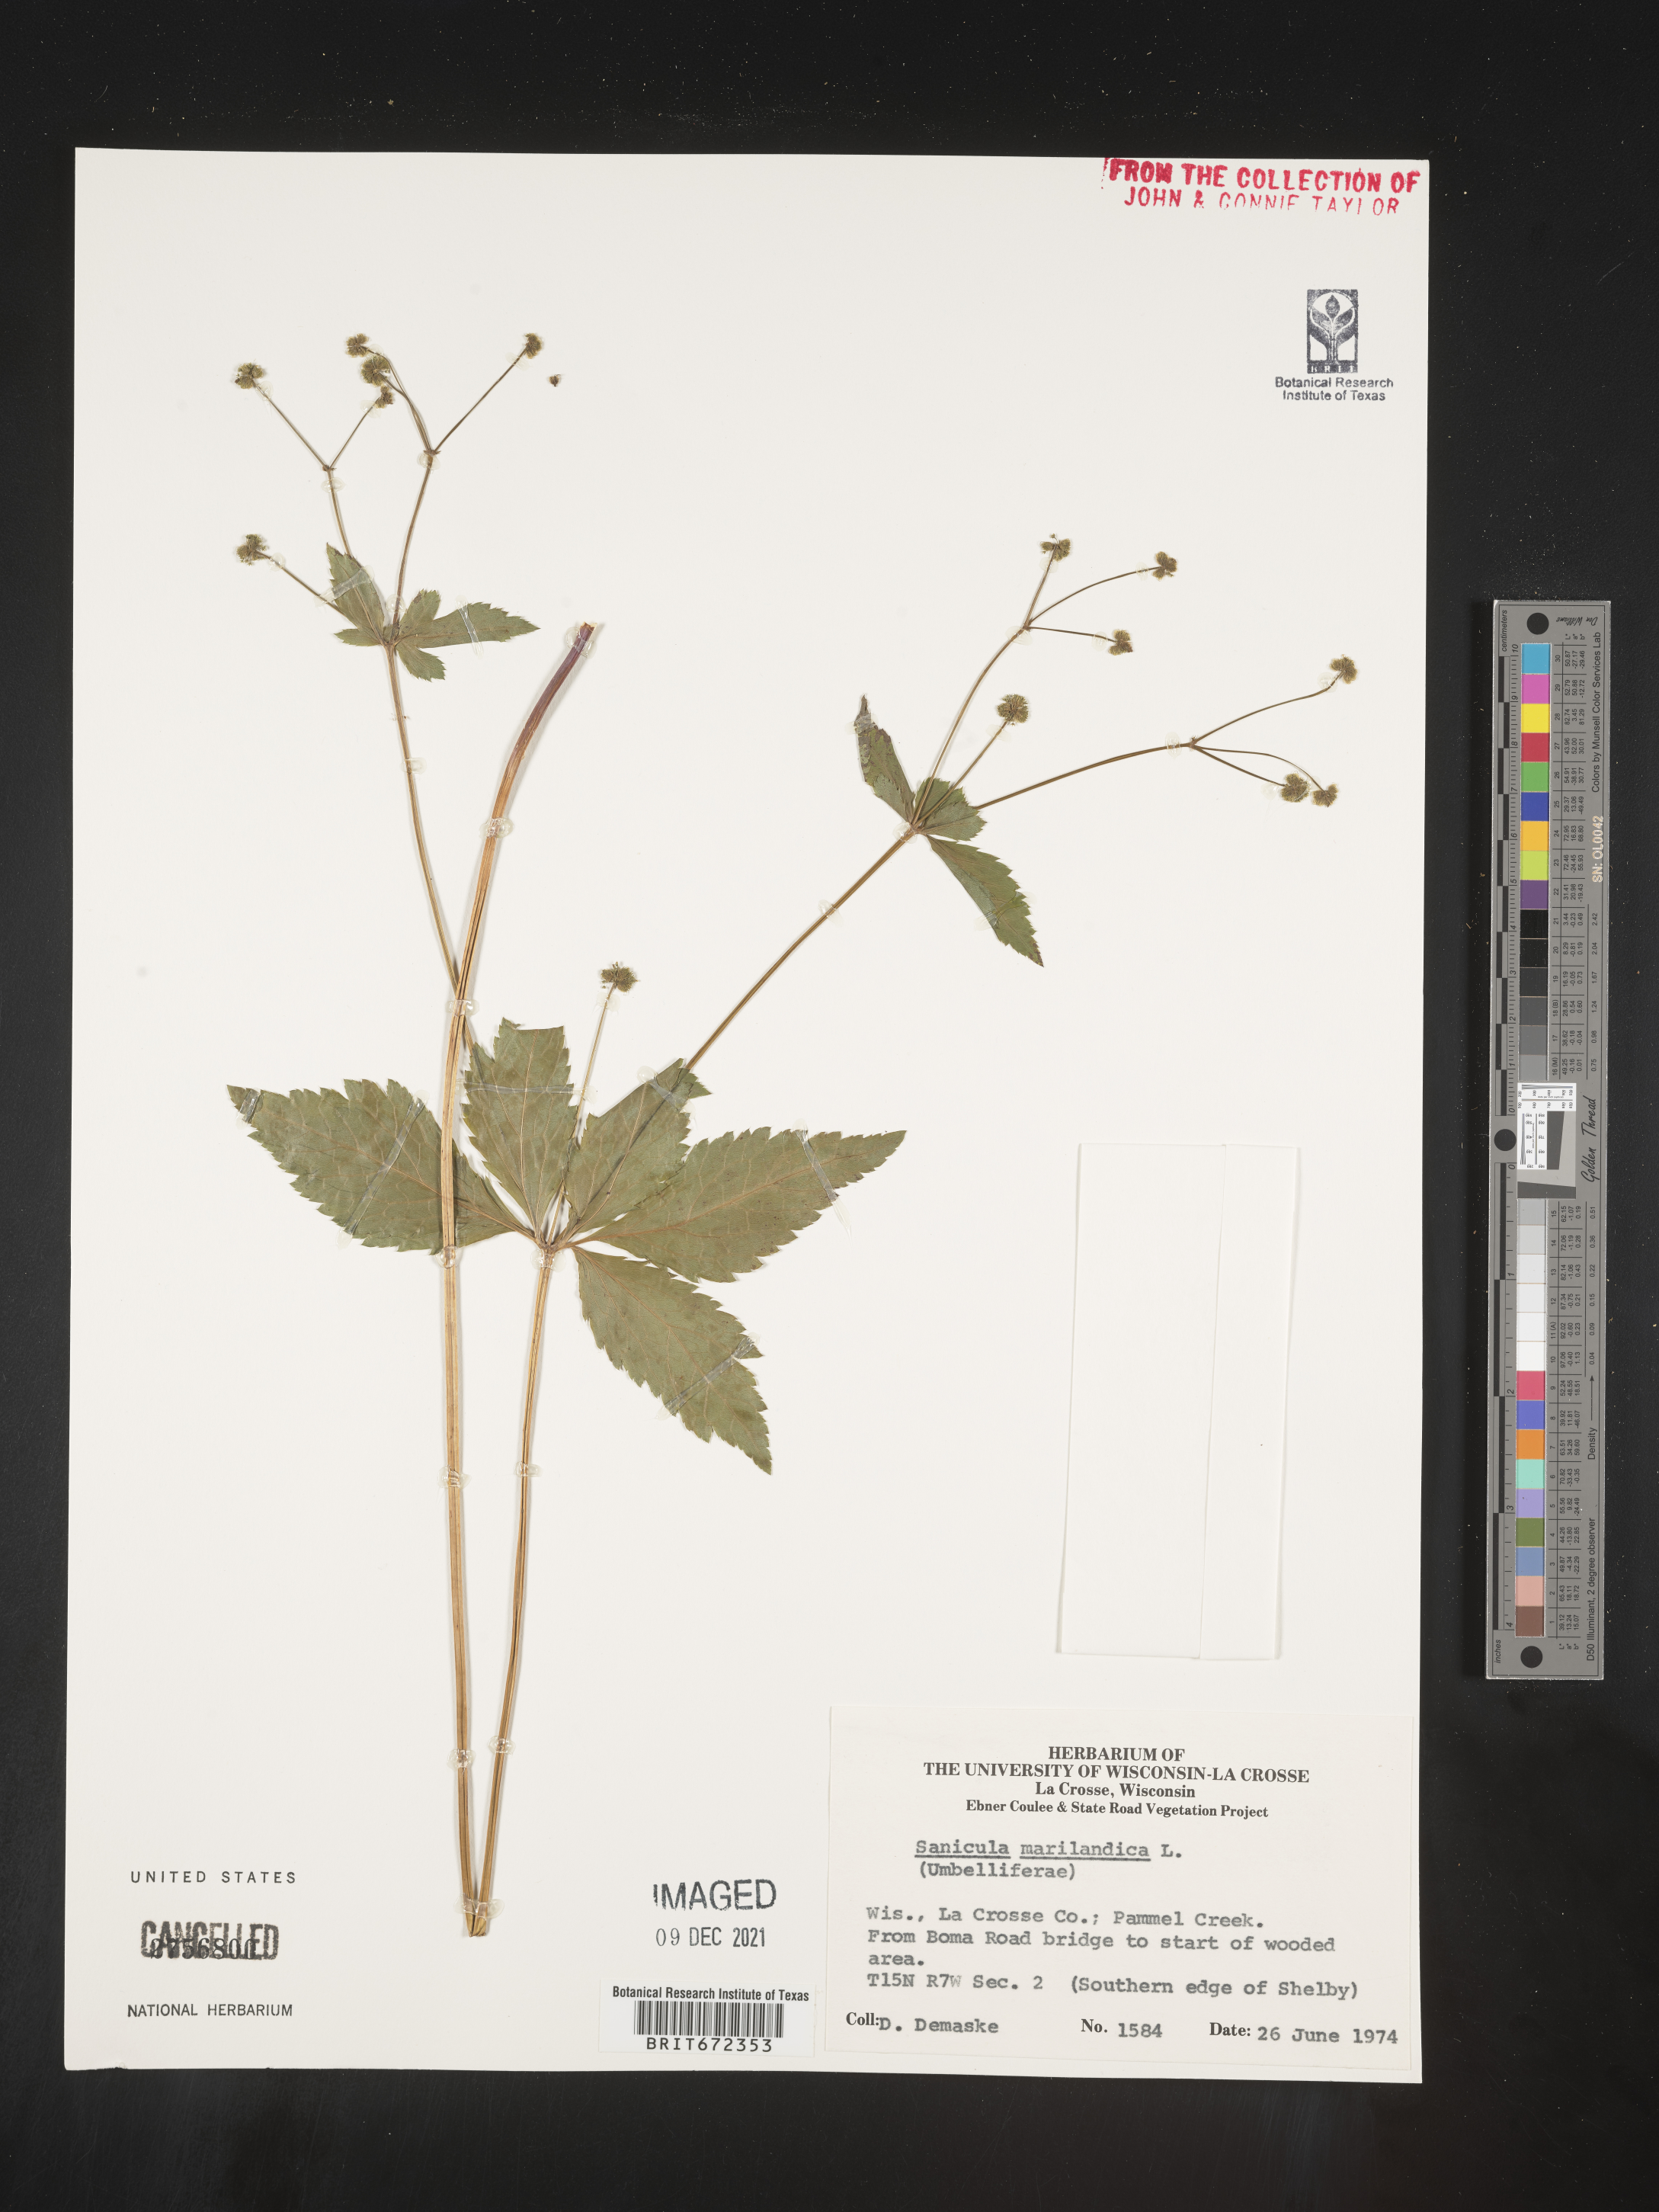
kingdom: Plantae
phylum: Tracheophyta
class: Magnoliopsida
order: Apiales
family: Apiaceae
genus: Sanicula
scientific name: Sanicula marilandica
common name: Black snakeroot
